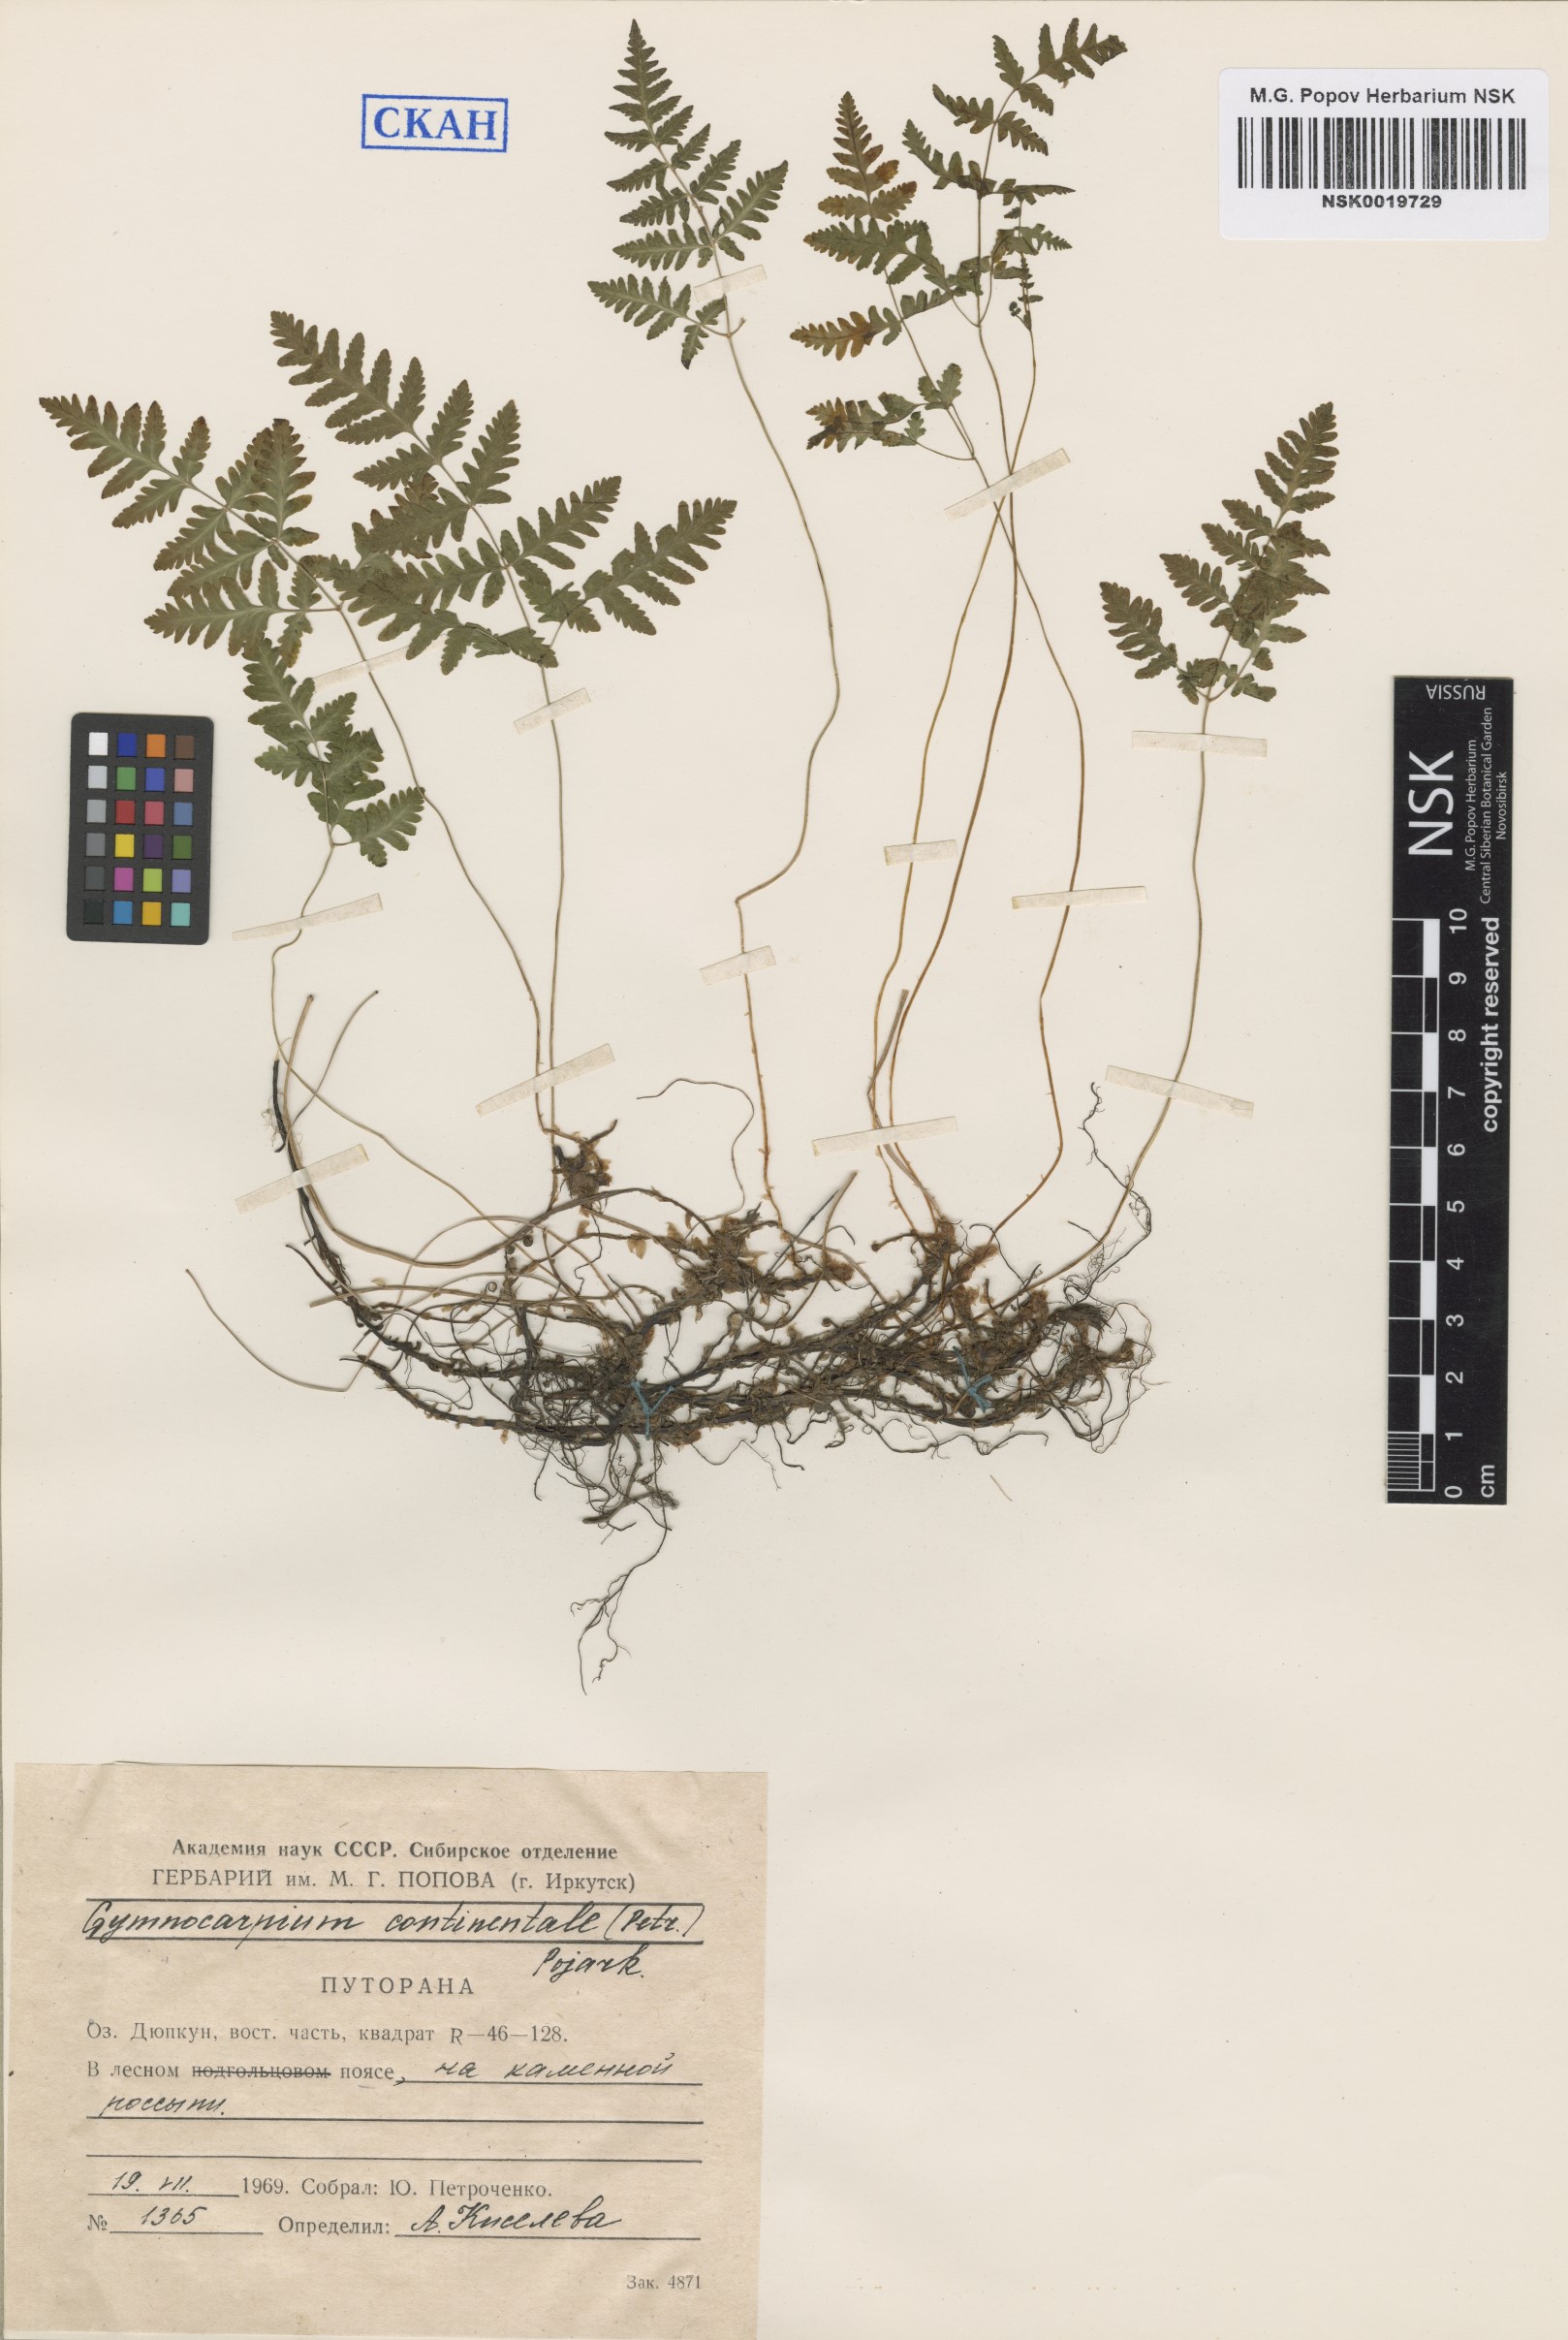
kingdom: Plantae
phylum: Tracheophyta
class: Polypodiopsida
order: Polypodiales
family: Cystopteridaceae
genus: Gymnocarpium
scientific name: Gymnocarpium continentale
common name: Asian oak fern
